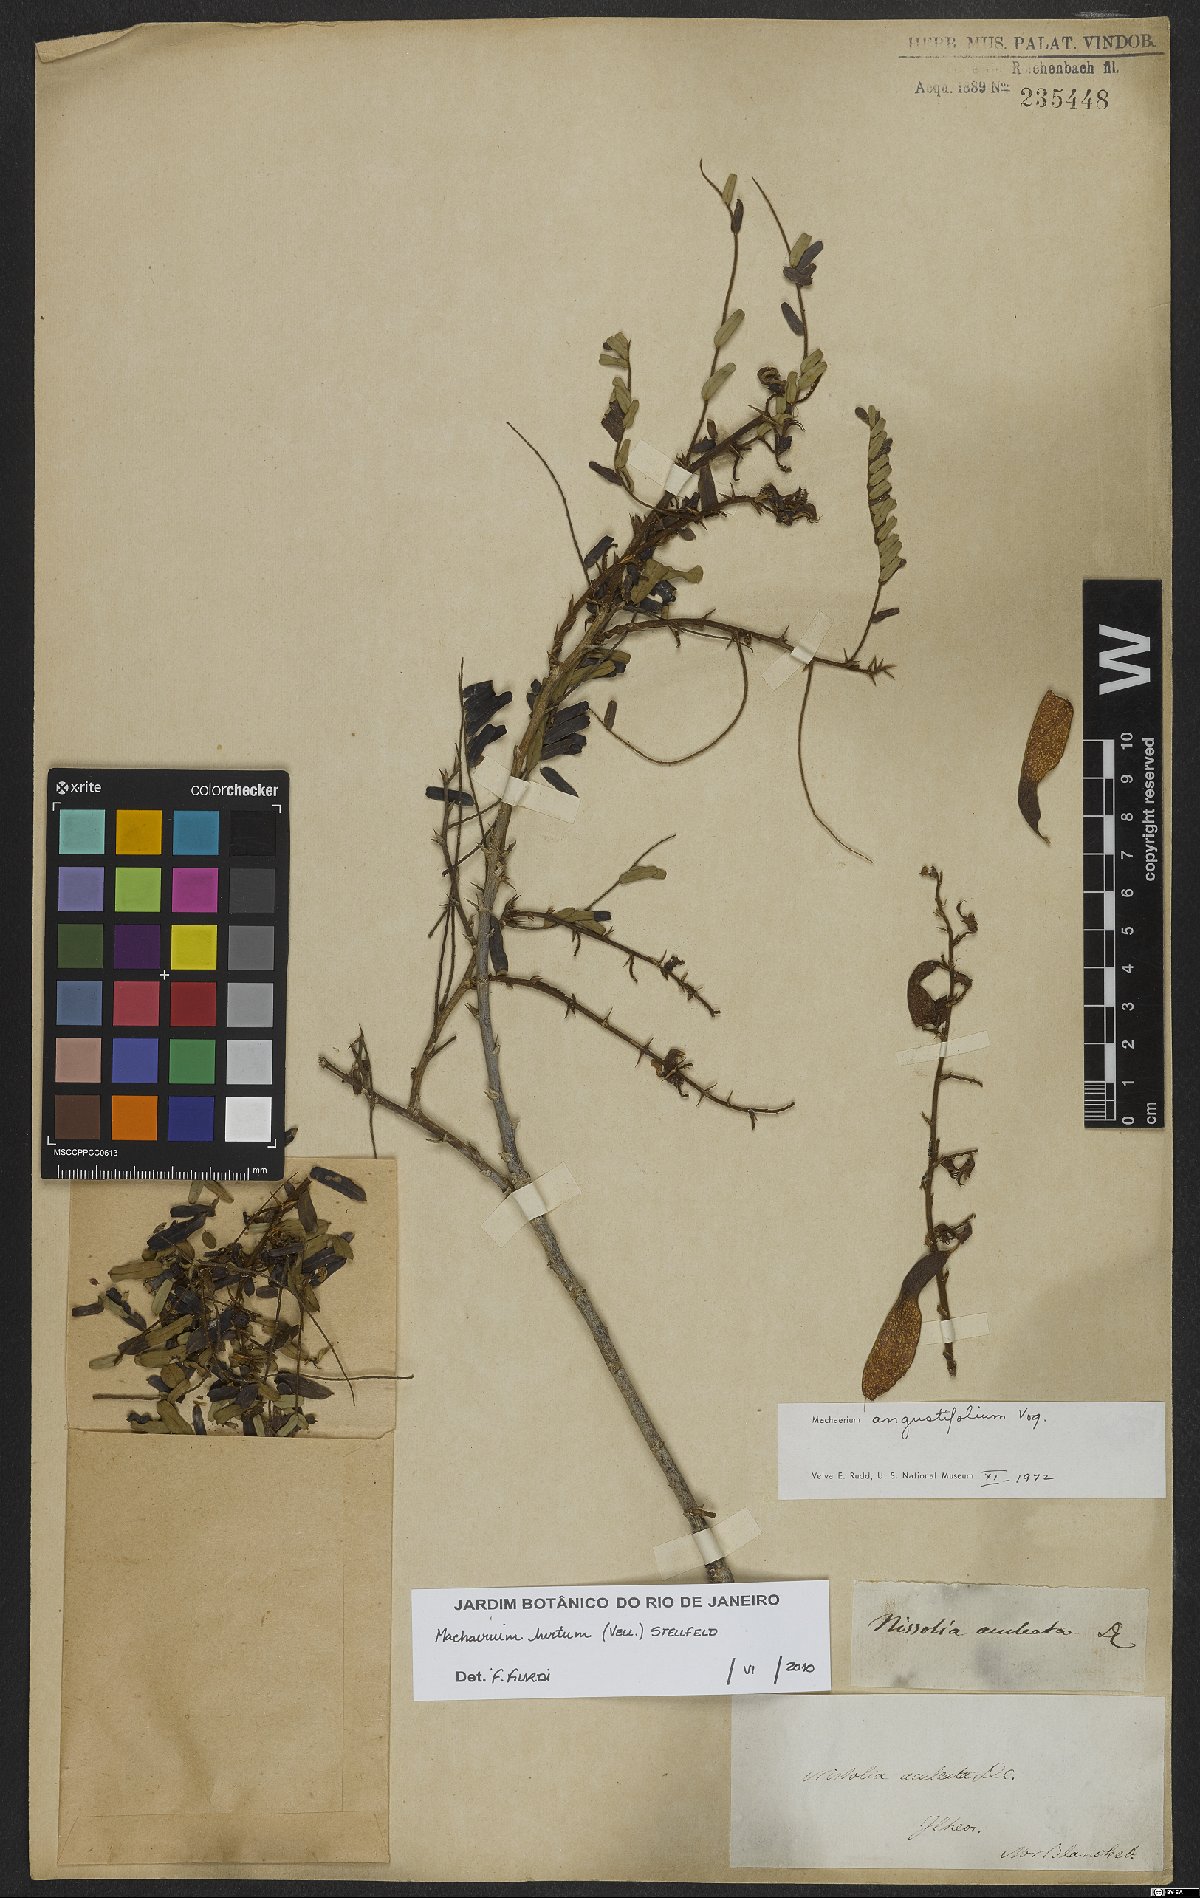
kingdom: Plantae
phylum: Tracheophyta
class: Magnoliopsida
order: Fabales
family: Fabaceae
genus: Machaerium
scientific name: Machaerium hirtum
